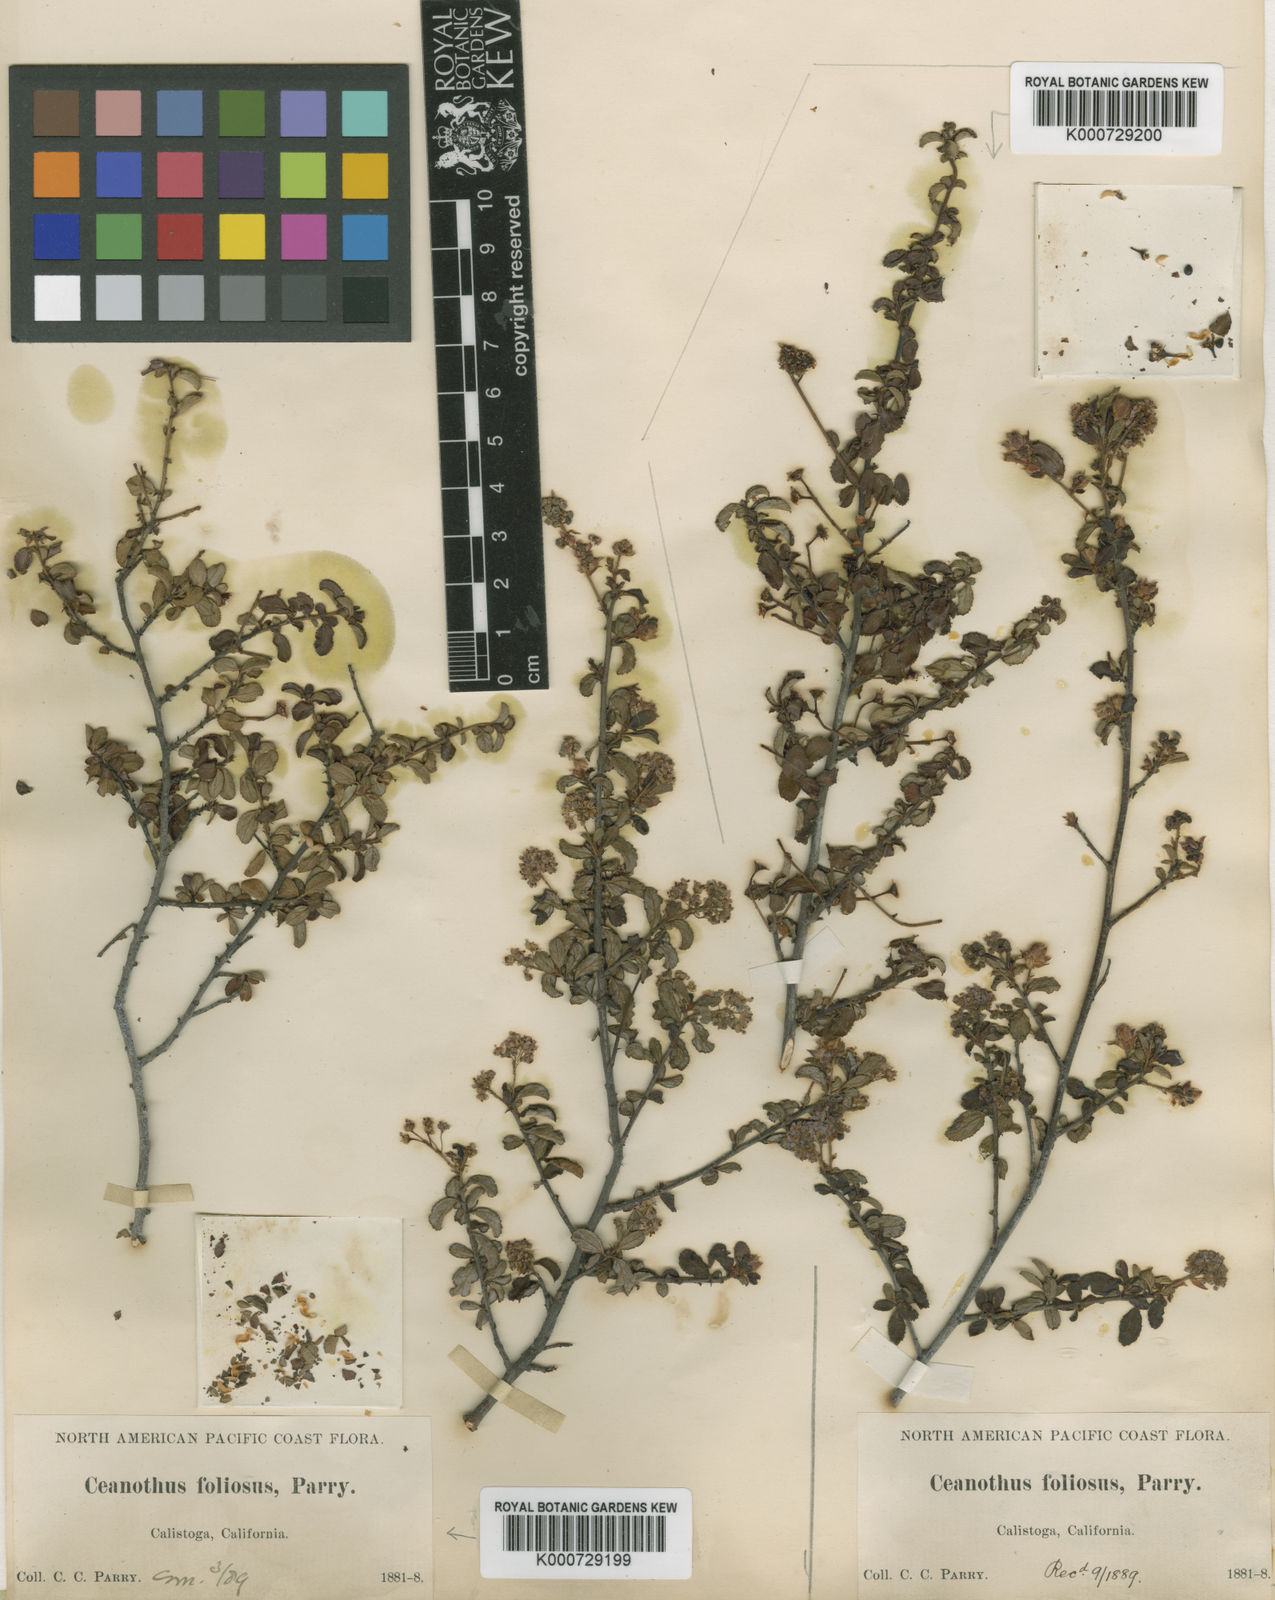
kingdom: Plantae
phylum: Tracheophyta
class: Magnoliopsida
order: Rosales
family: Rhamnaceae
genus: Ceanothus
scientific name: Ceanothus foliosus
